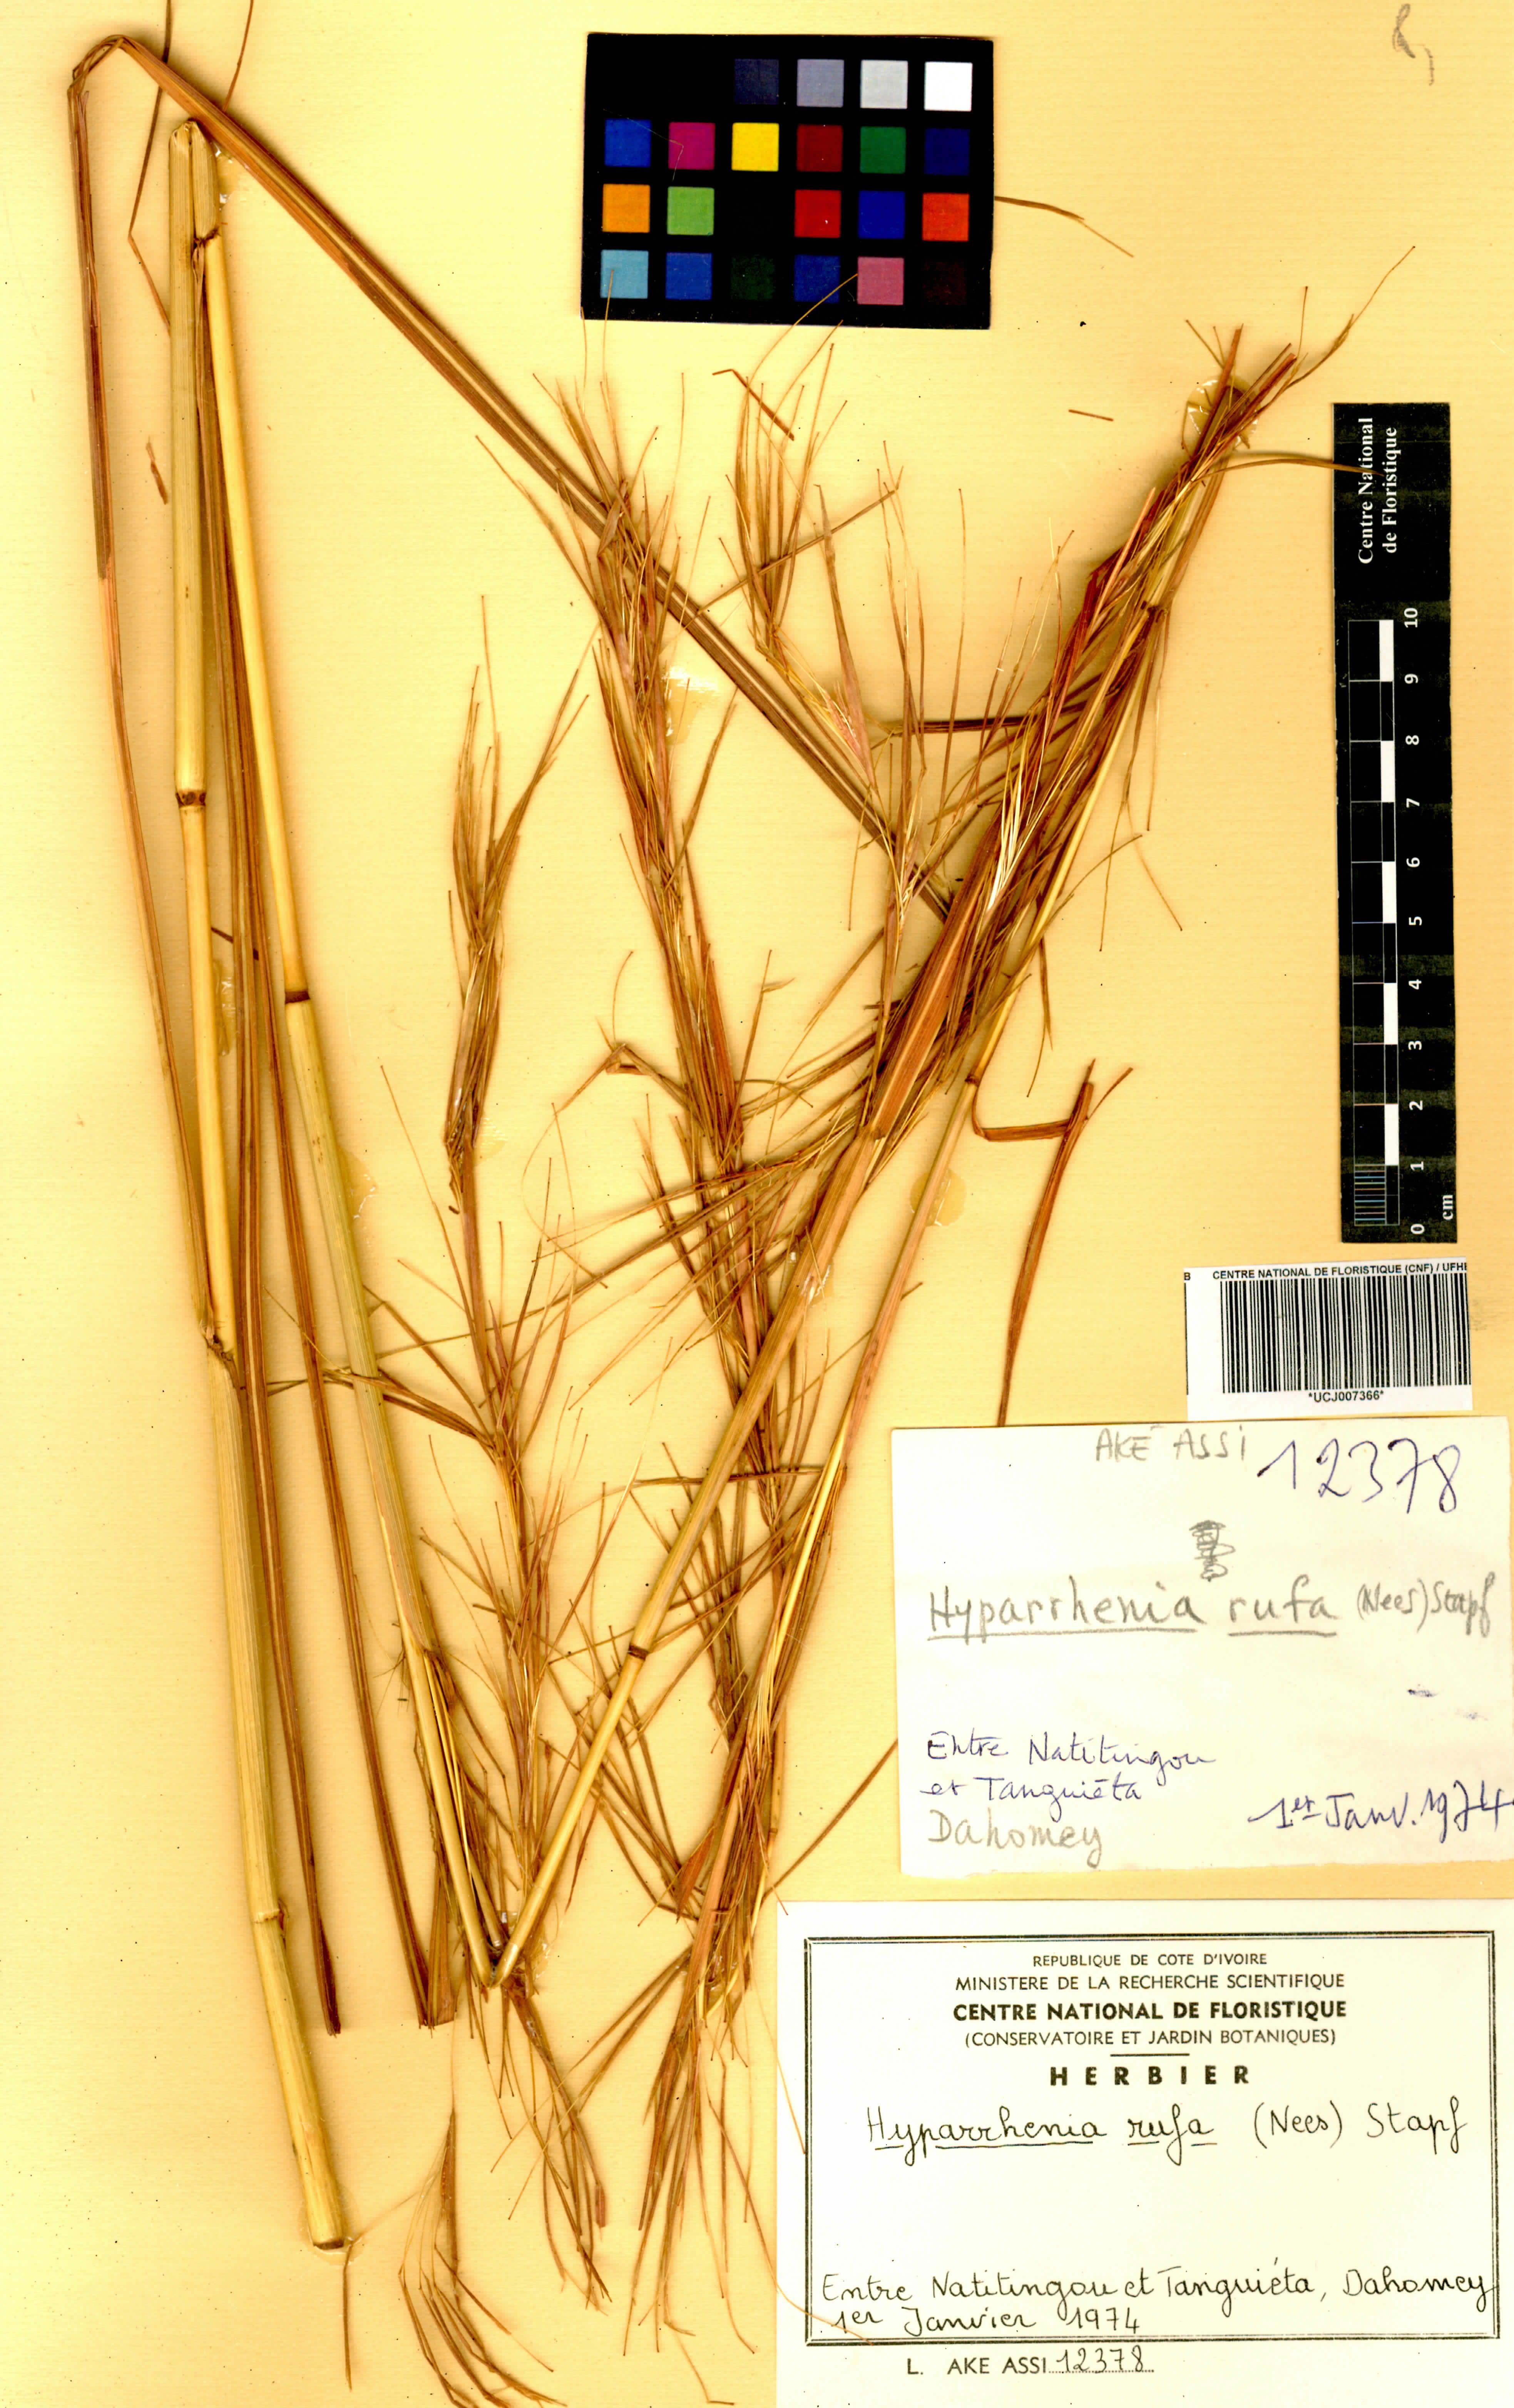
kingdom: Plantae
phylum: Tracheophyta
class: Liliopsida
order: Poales
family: Poaceae
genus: Hyparrhenia
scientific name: Hyparrhenia rufa
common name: Jaraguagrass
